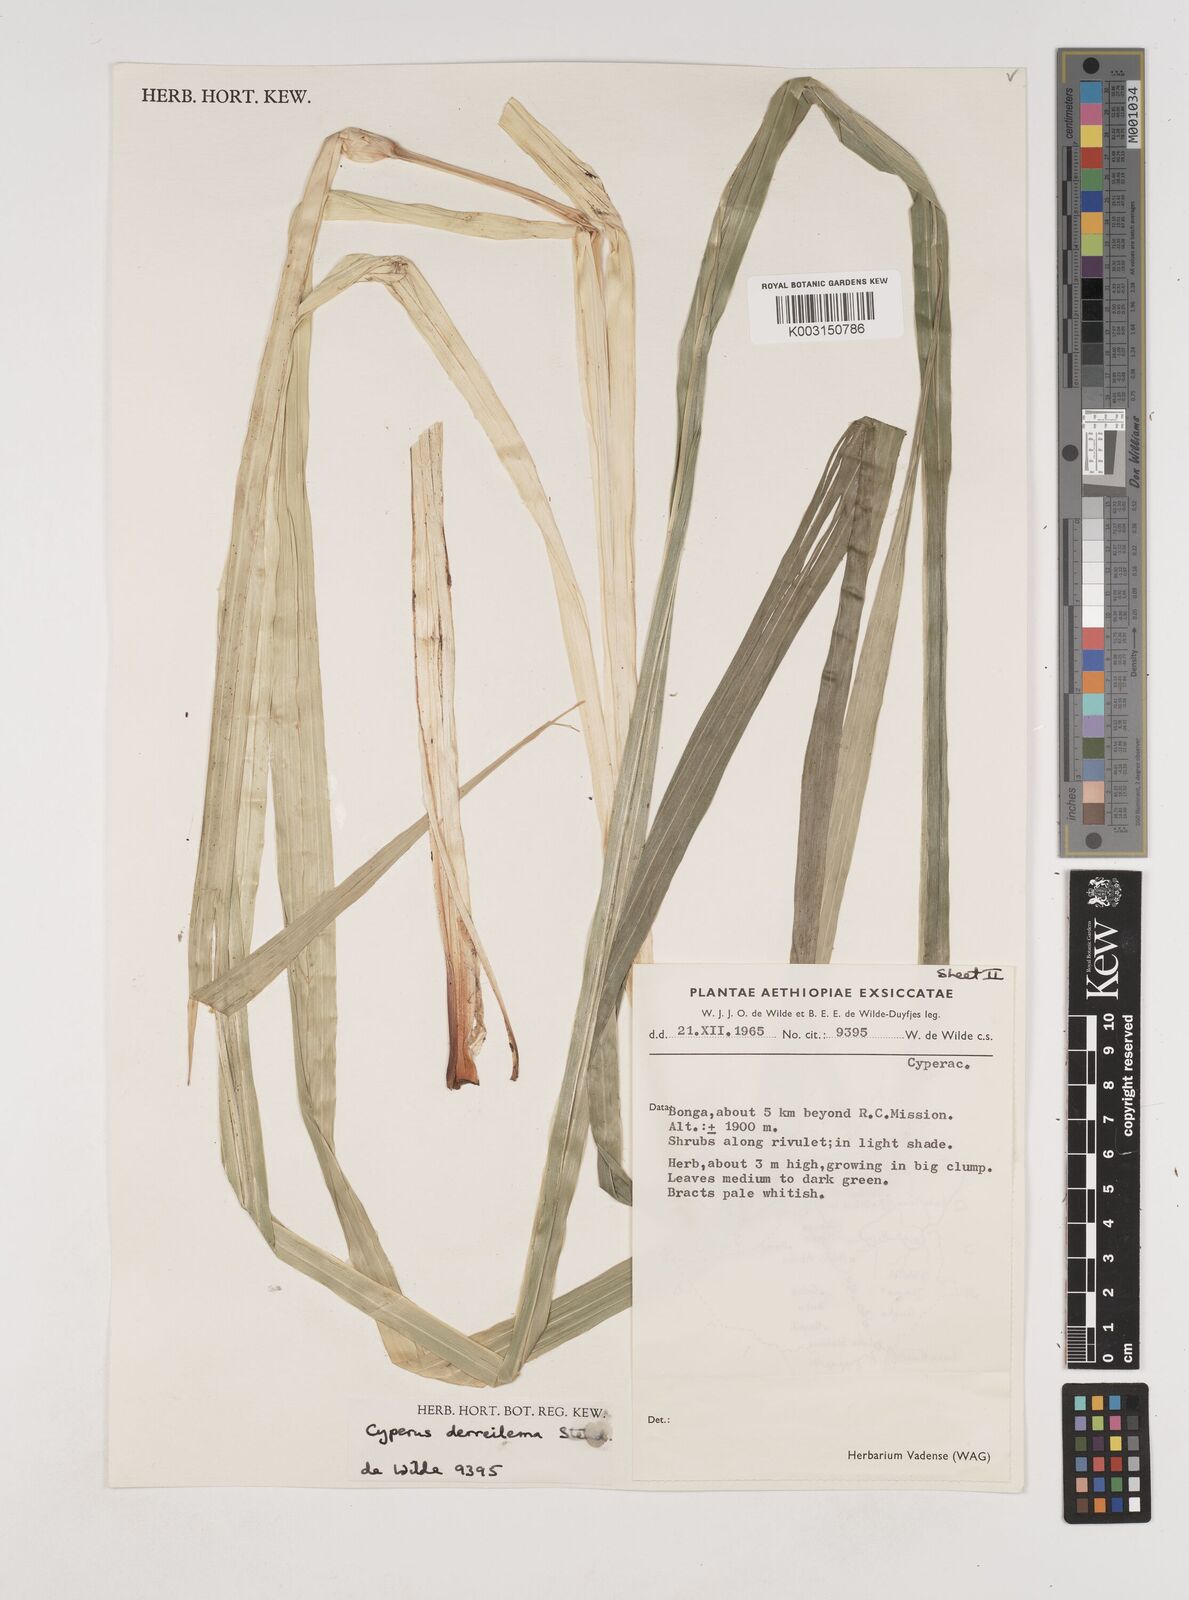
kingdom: Plantae
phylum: Tracheophyta
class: Liliopsida
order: Poales
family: Cyperaceae
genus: Cyperus
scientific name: Cyperus derreilema
